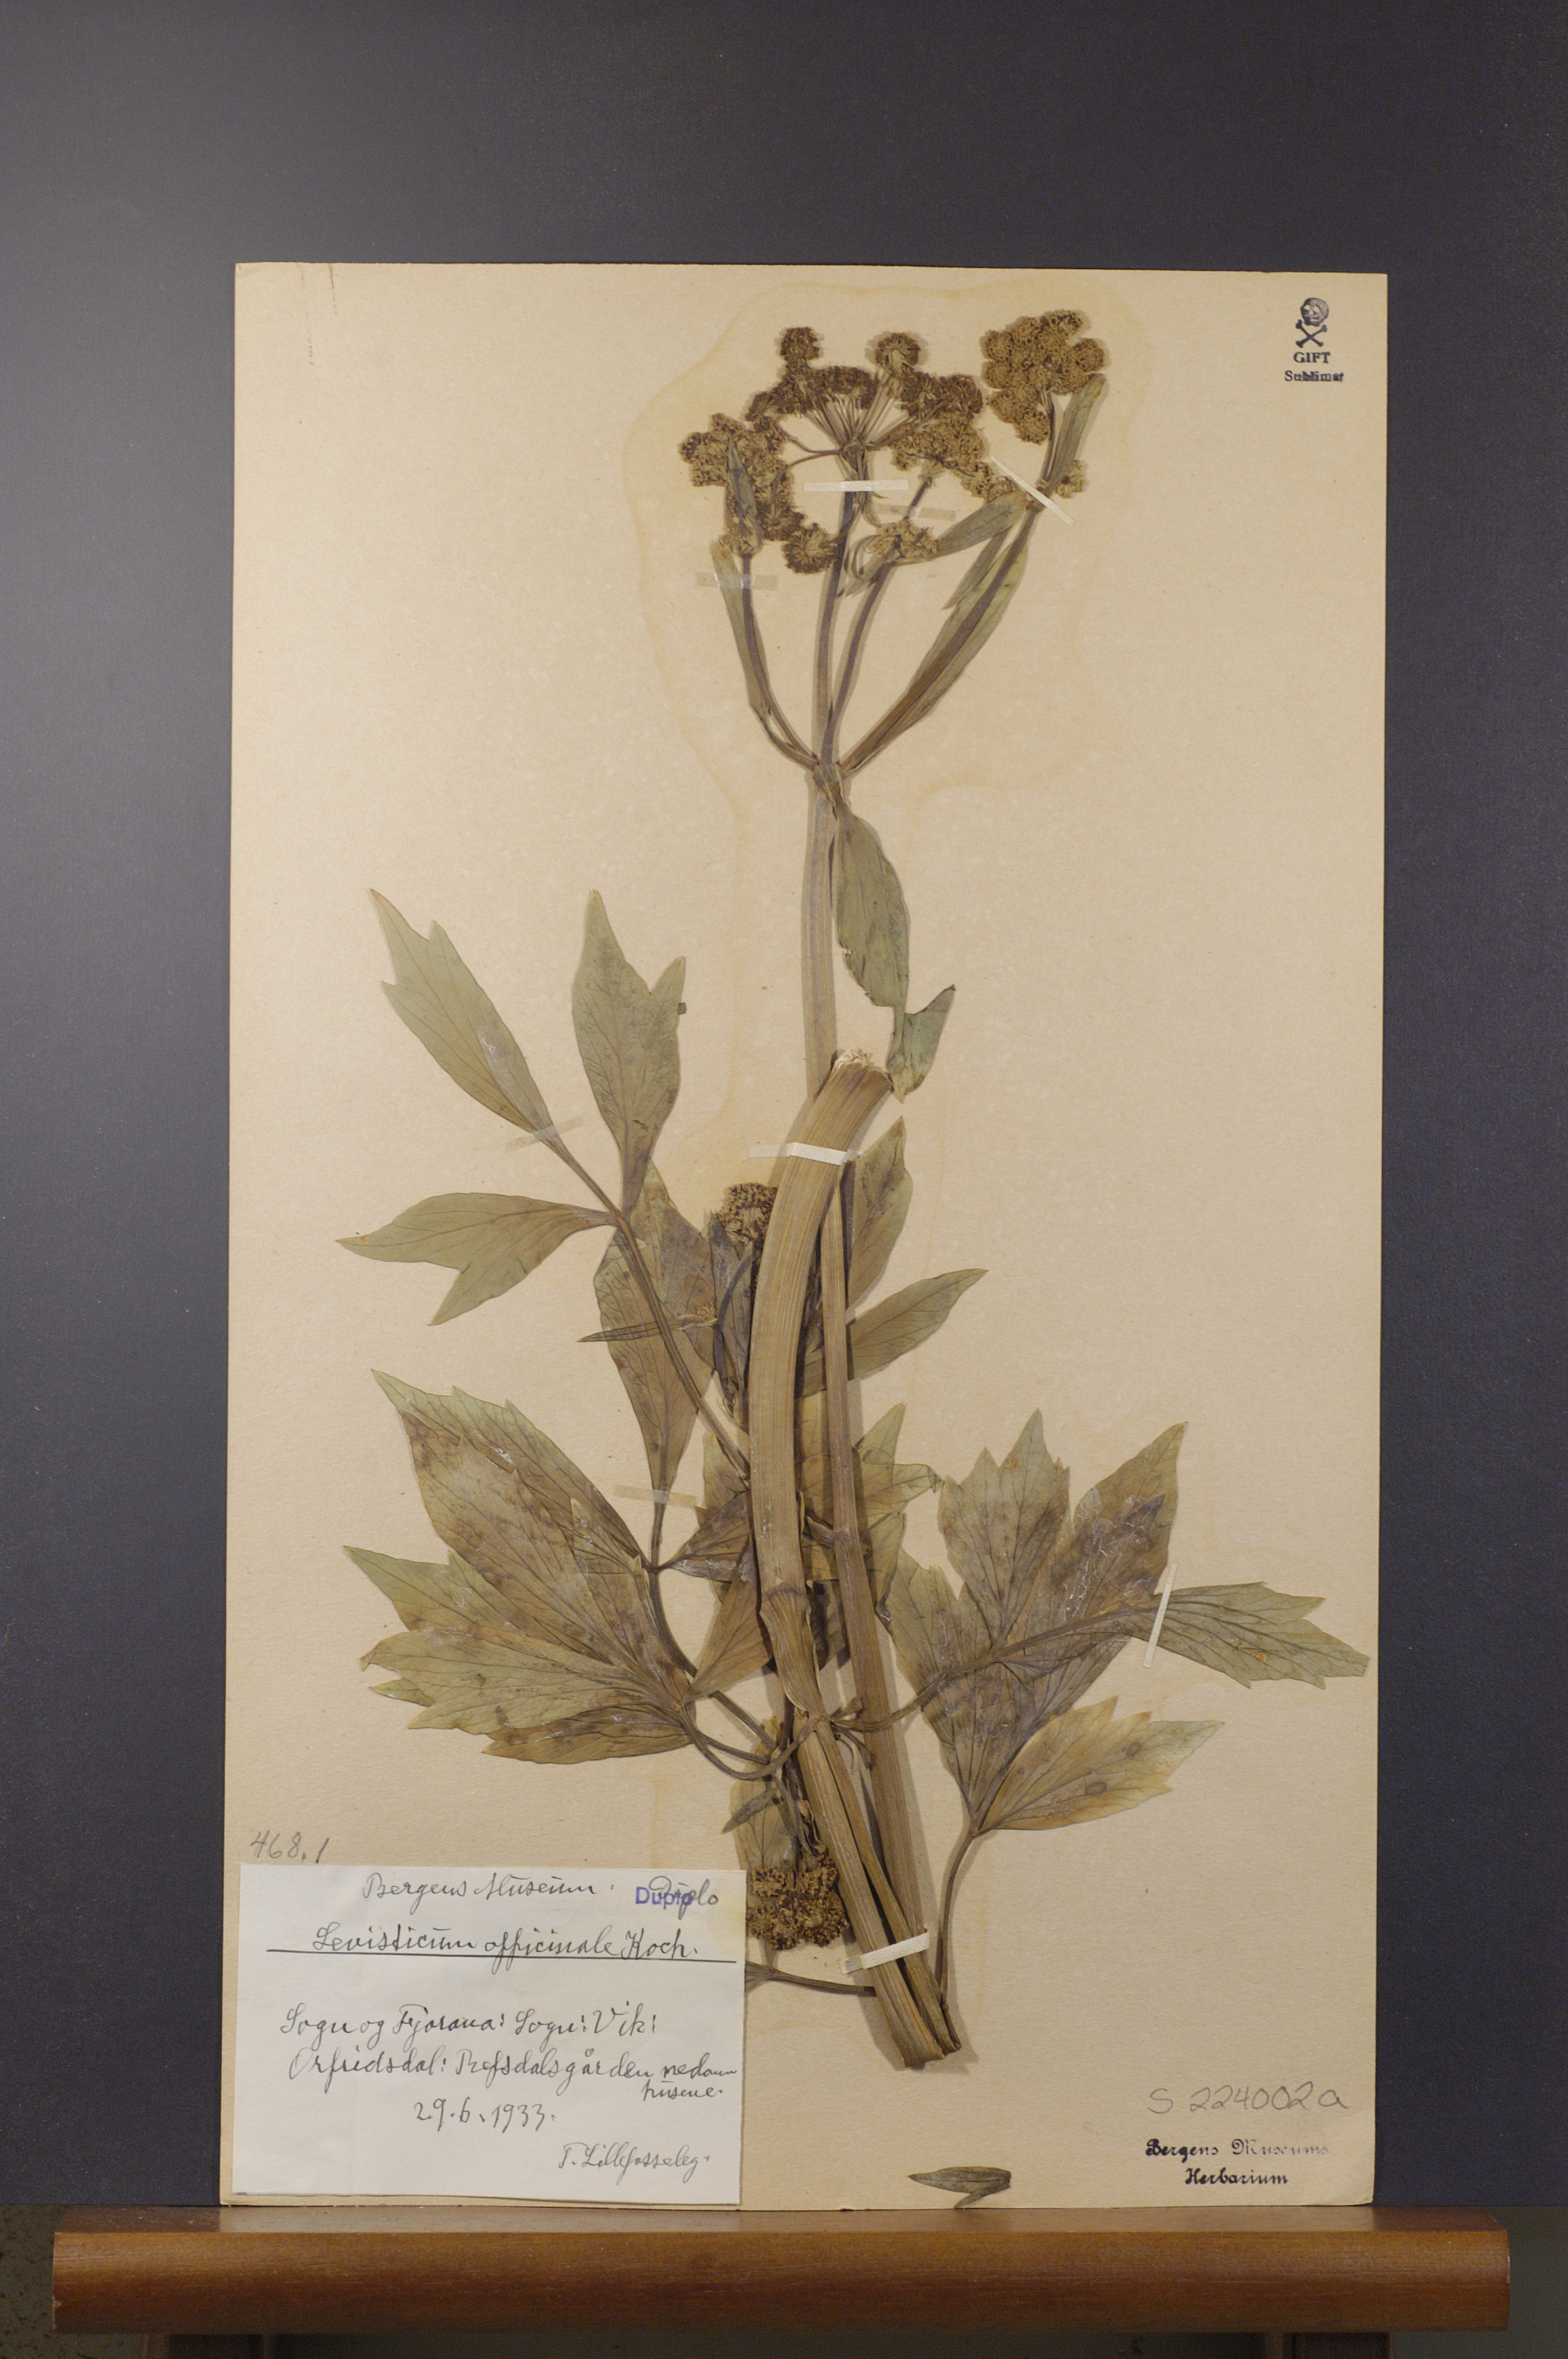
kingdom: Plantae
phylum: Tracheophyta
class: Magnoliopsida
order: Apiales
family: Apiaceae
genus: Levisticum
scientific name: Levisticum officinale
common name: Lovage
